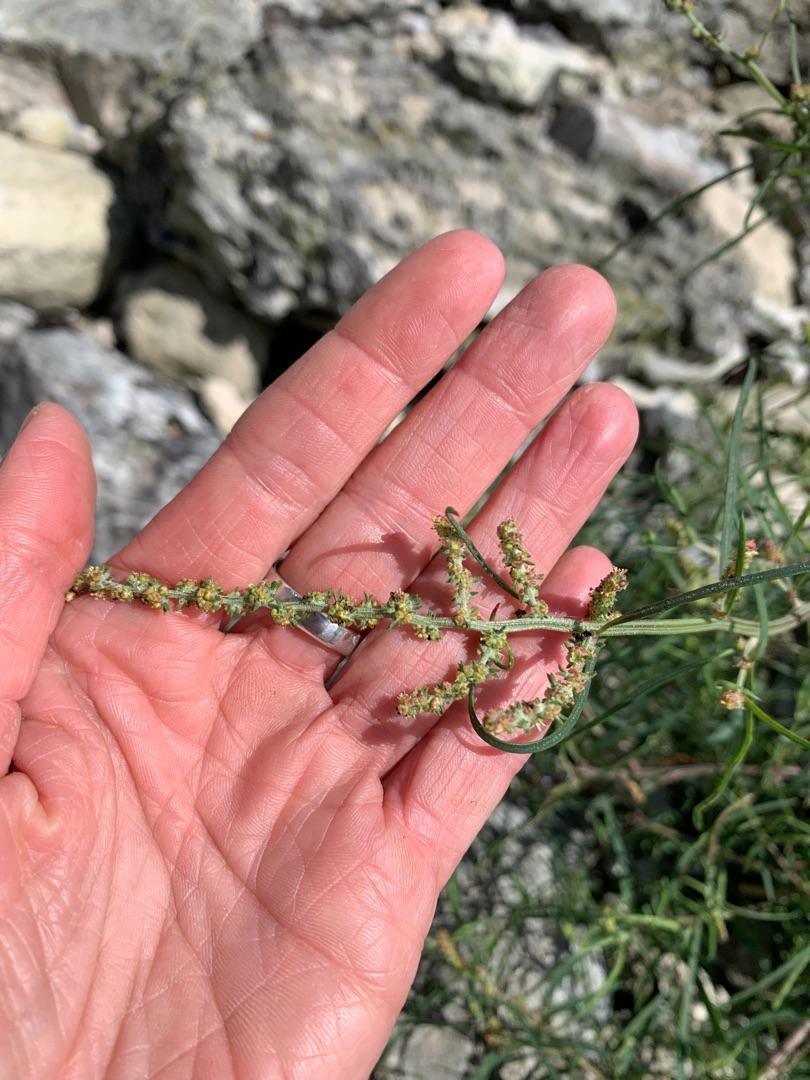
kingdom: Plantae
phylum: Tracheophyta
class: Magnoliopsida
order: Caryophyllales
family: Amaranthaceae
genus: Atriplex
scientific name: Atriplex littoralis
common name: Strand-mælde
